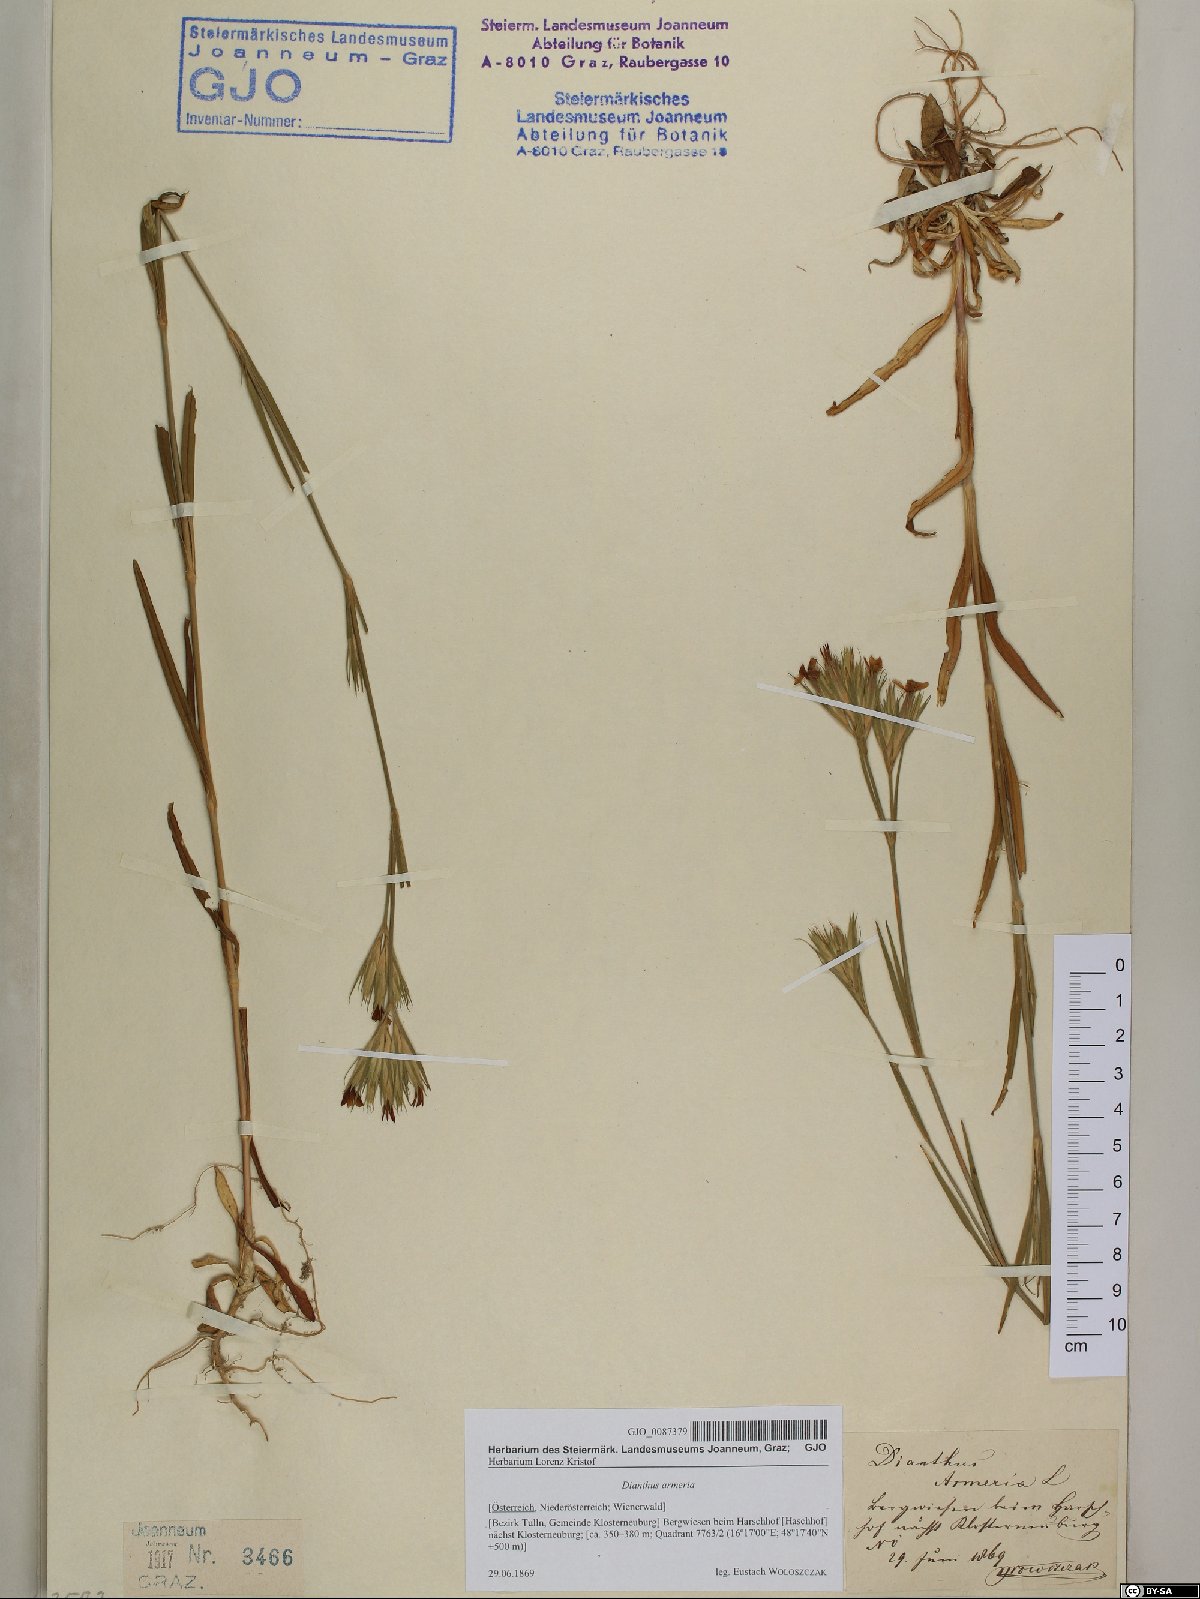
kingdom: Plantae
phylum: Tracheophyta
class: Magnoliopsida
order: Caryophyllales
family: Caryophyllaceae
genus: Dianthus
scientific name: Dianthus armeria
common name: Deptford pink
